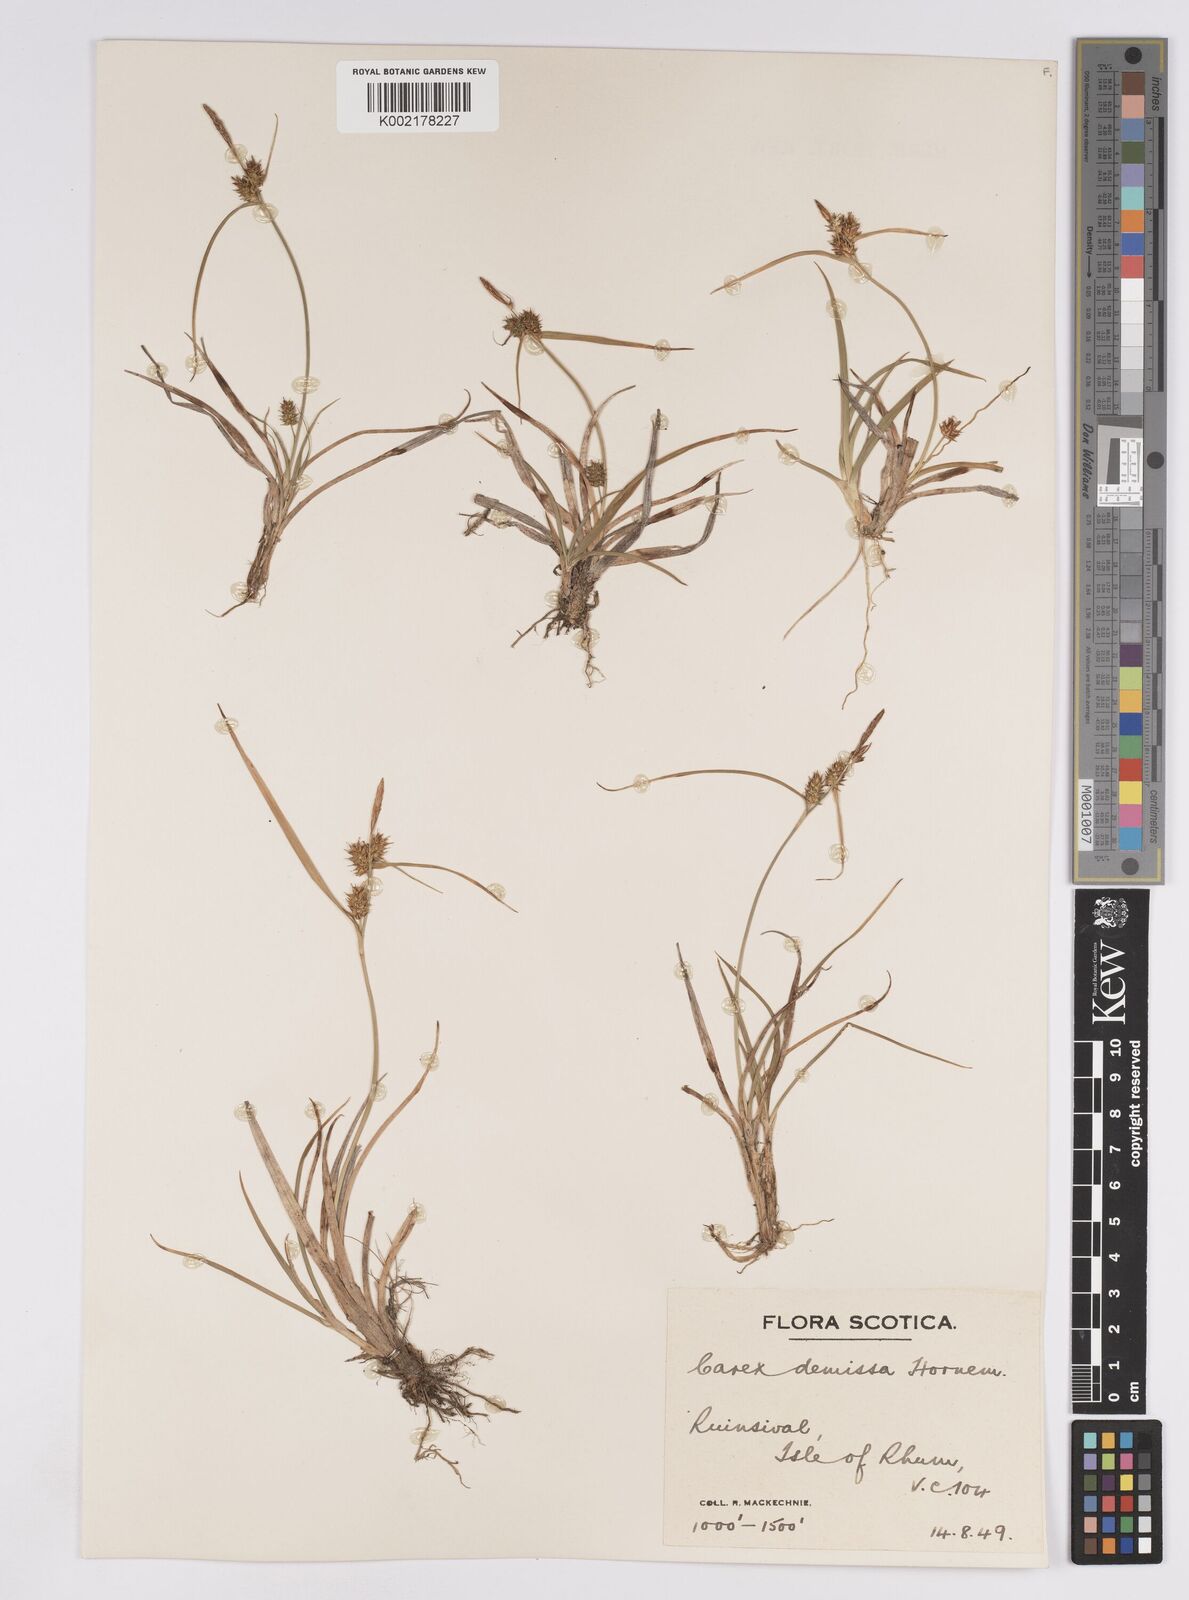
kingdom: Plantae
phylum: Tracheophyta
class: Liliopsida
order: Poales
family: Cyperaceae
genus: Carex
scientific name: Carex demissa
